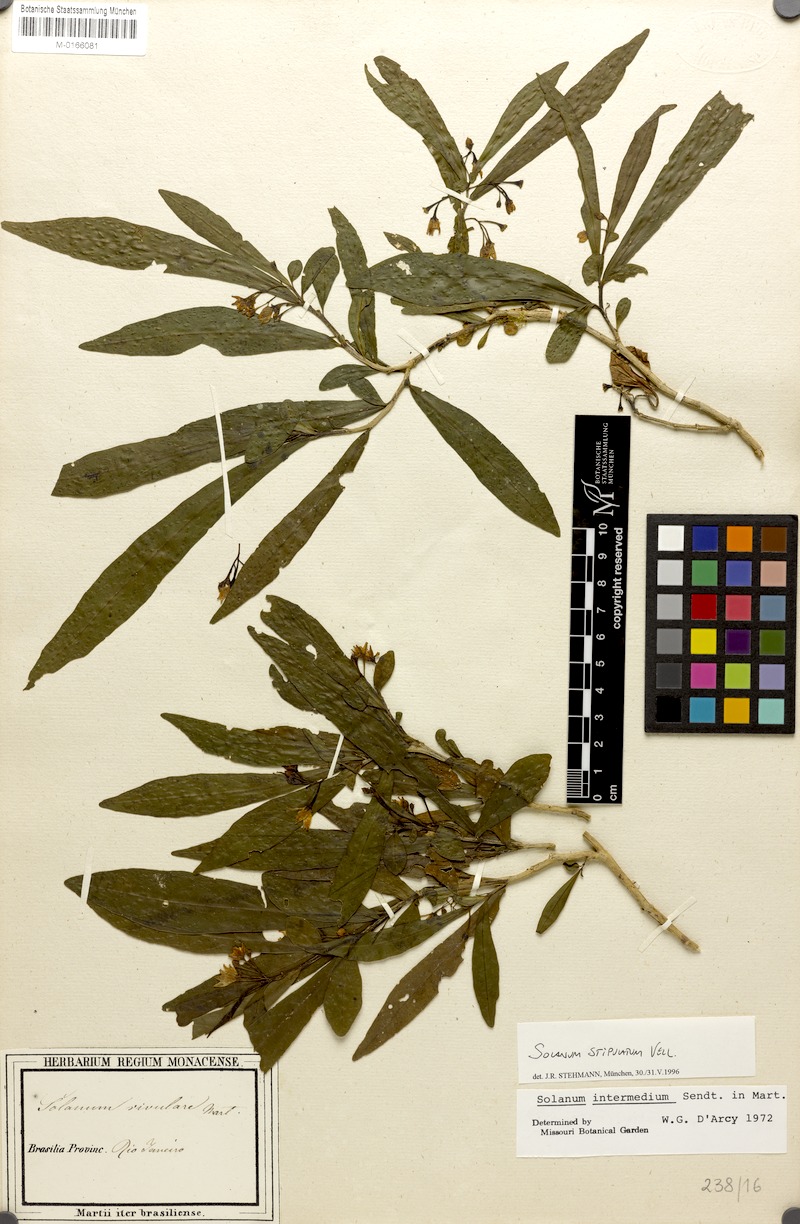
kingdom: Plantae
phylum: Tracheophyta
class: Magnoliopsida
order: Solanales
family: Solanaceae
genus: Solanum
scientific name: Solanum stipulatum
